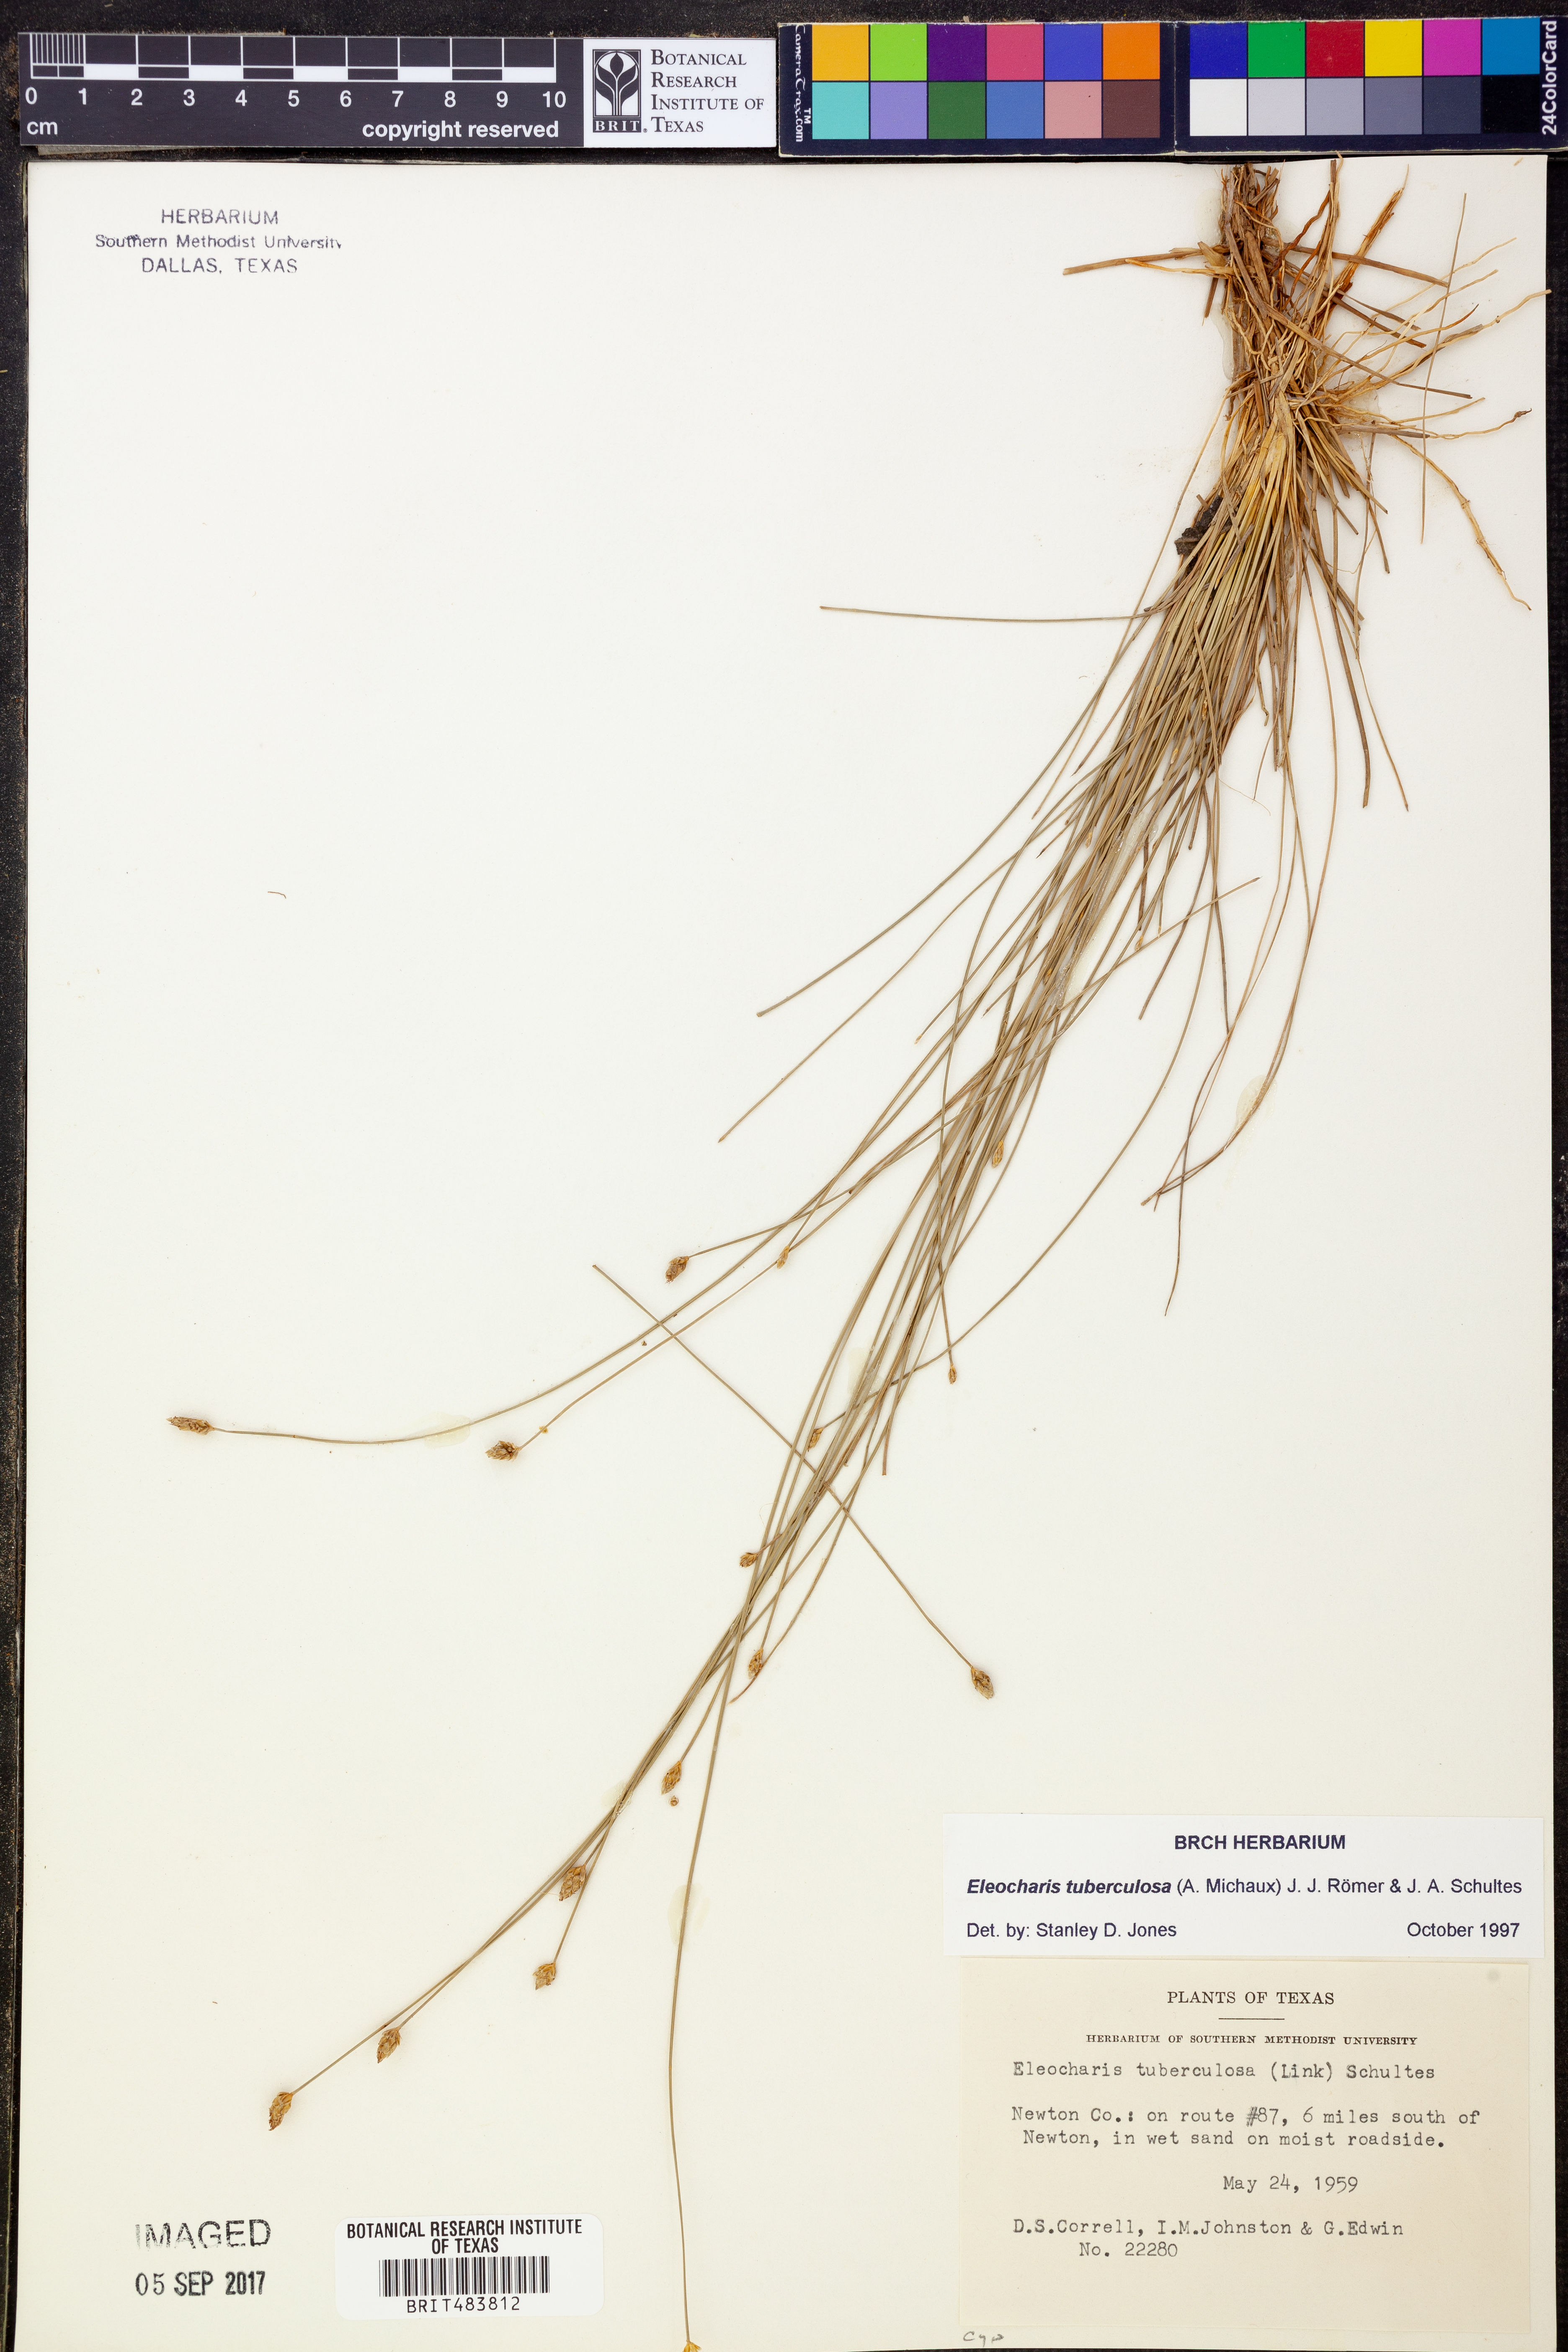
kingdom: Plantae
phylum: Tracheophyta
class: Liliopsida
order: Poales
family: Cyperaceae
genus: Eleocharis
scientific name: Eleocharis tuberculosa
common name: Cone-cup spikerush
